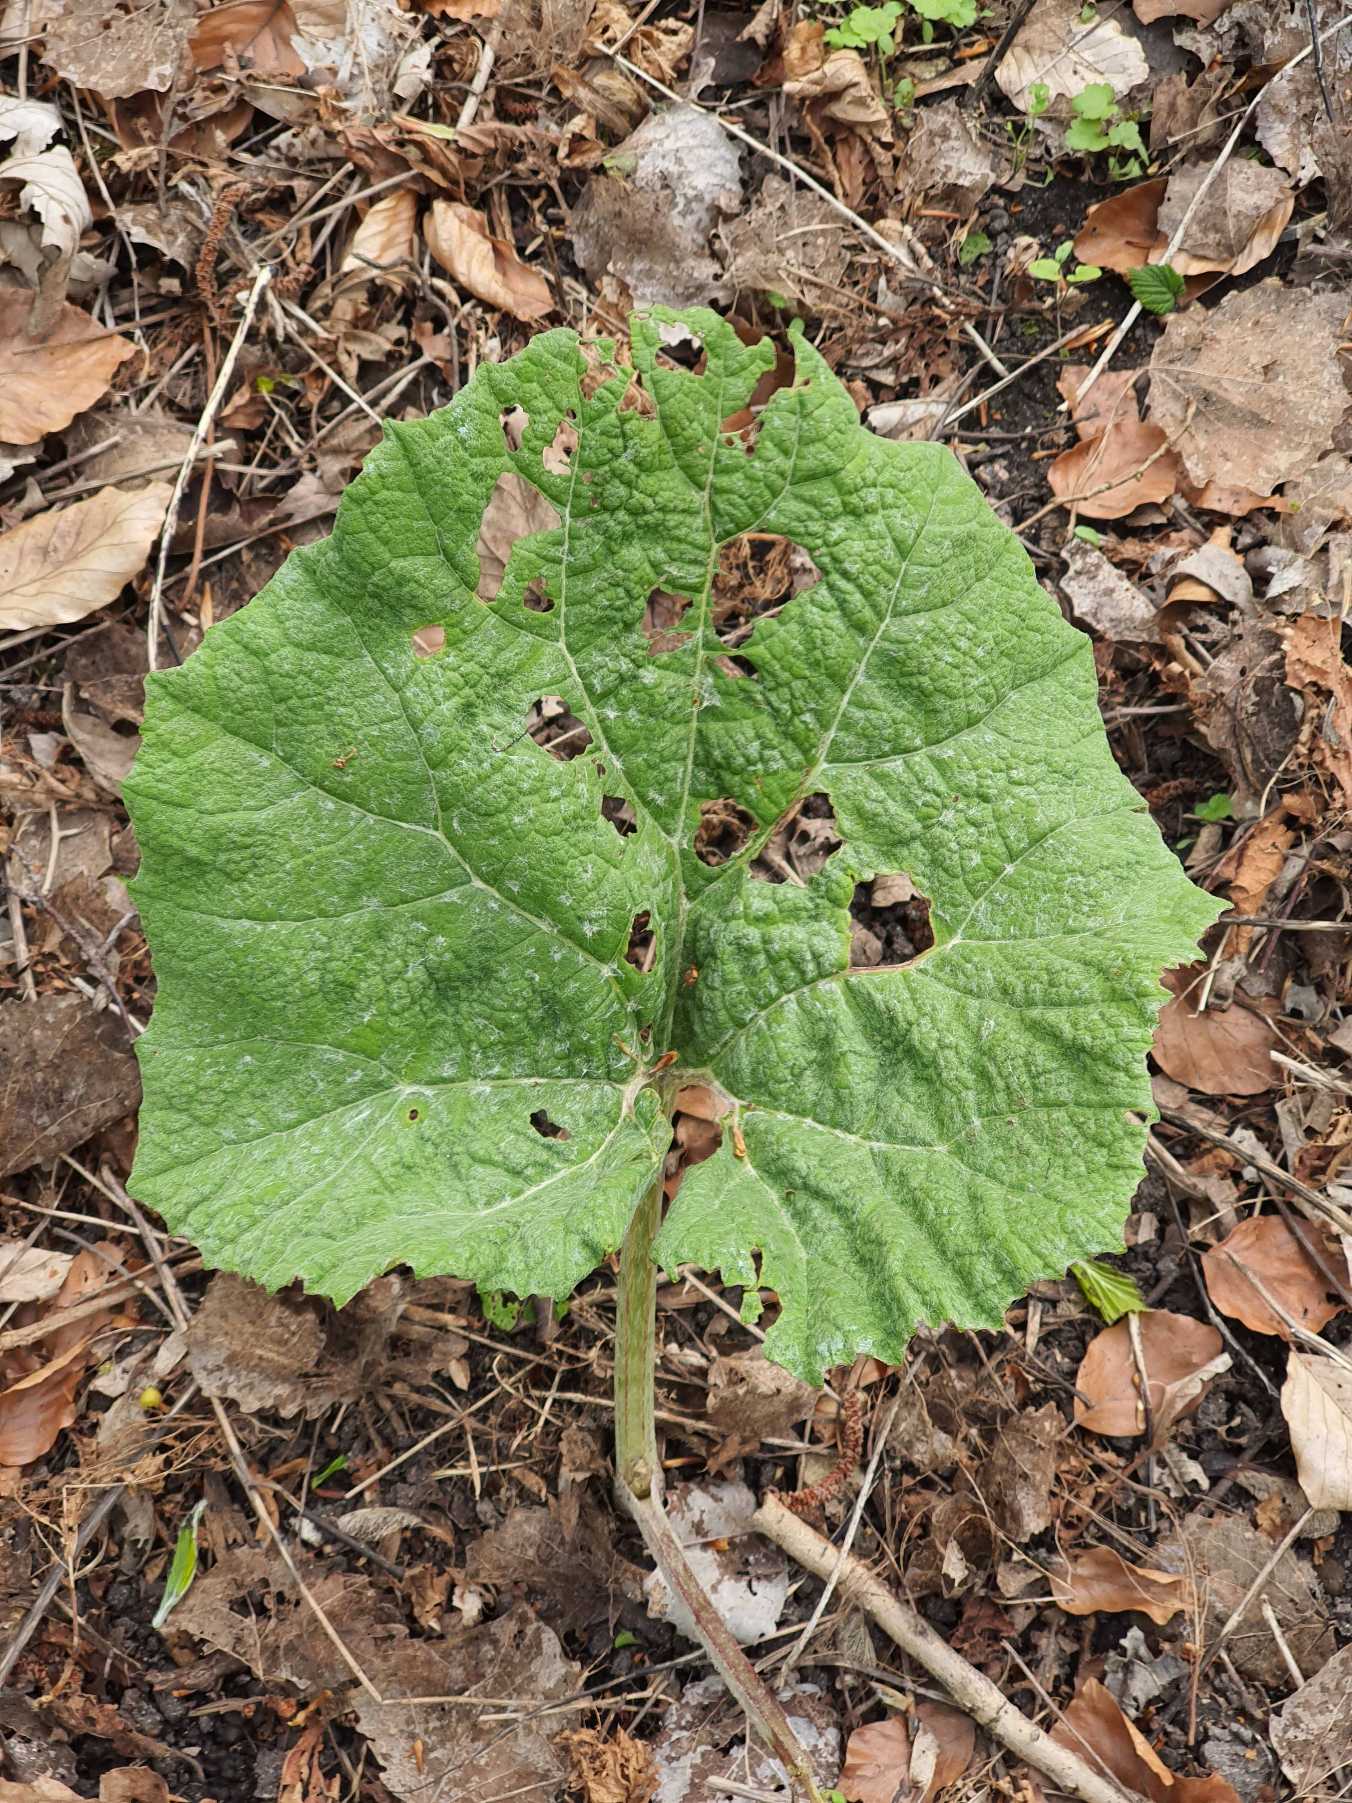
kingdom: Plantae
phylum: Tracheophyta
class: Magnoliopsida
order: Asterales
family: Asteraceae
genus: Petasites
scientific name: Petasites hybridus
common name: Rød hestehov
